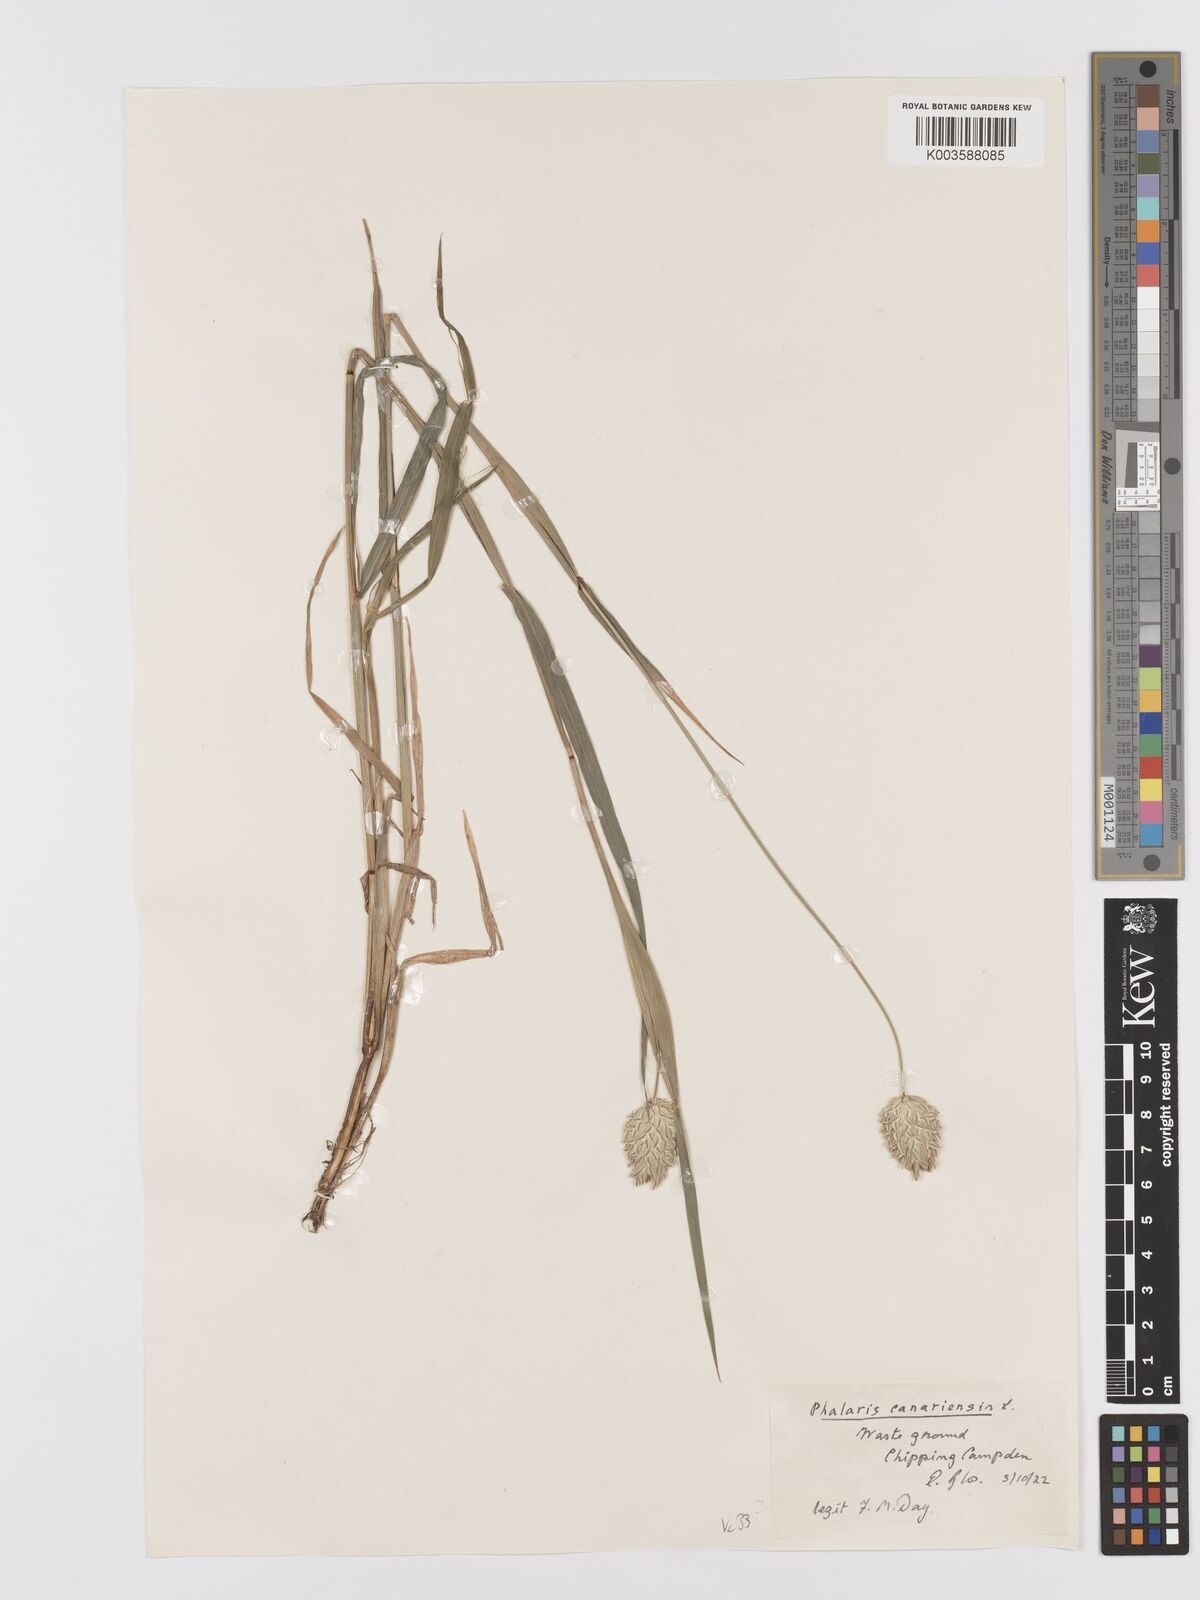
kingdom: Plantae
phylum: Tracheophyta
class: Liliopsida
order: Poales
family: Poaceae
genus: Phalaris
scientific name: Phalaris canariensis
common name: Annual canarygrass
